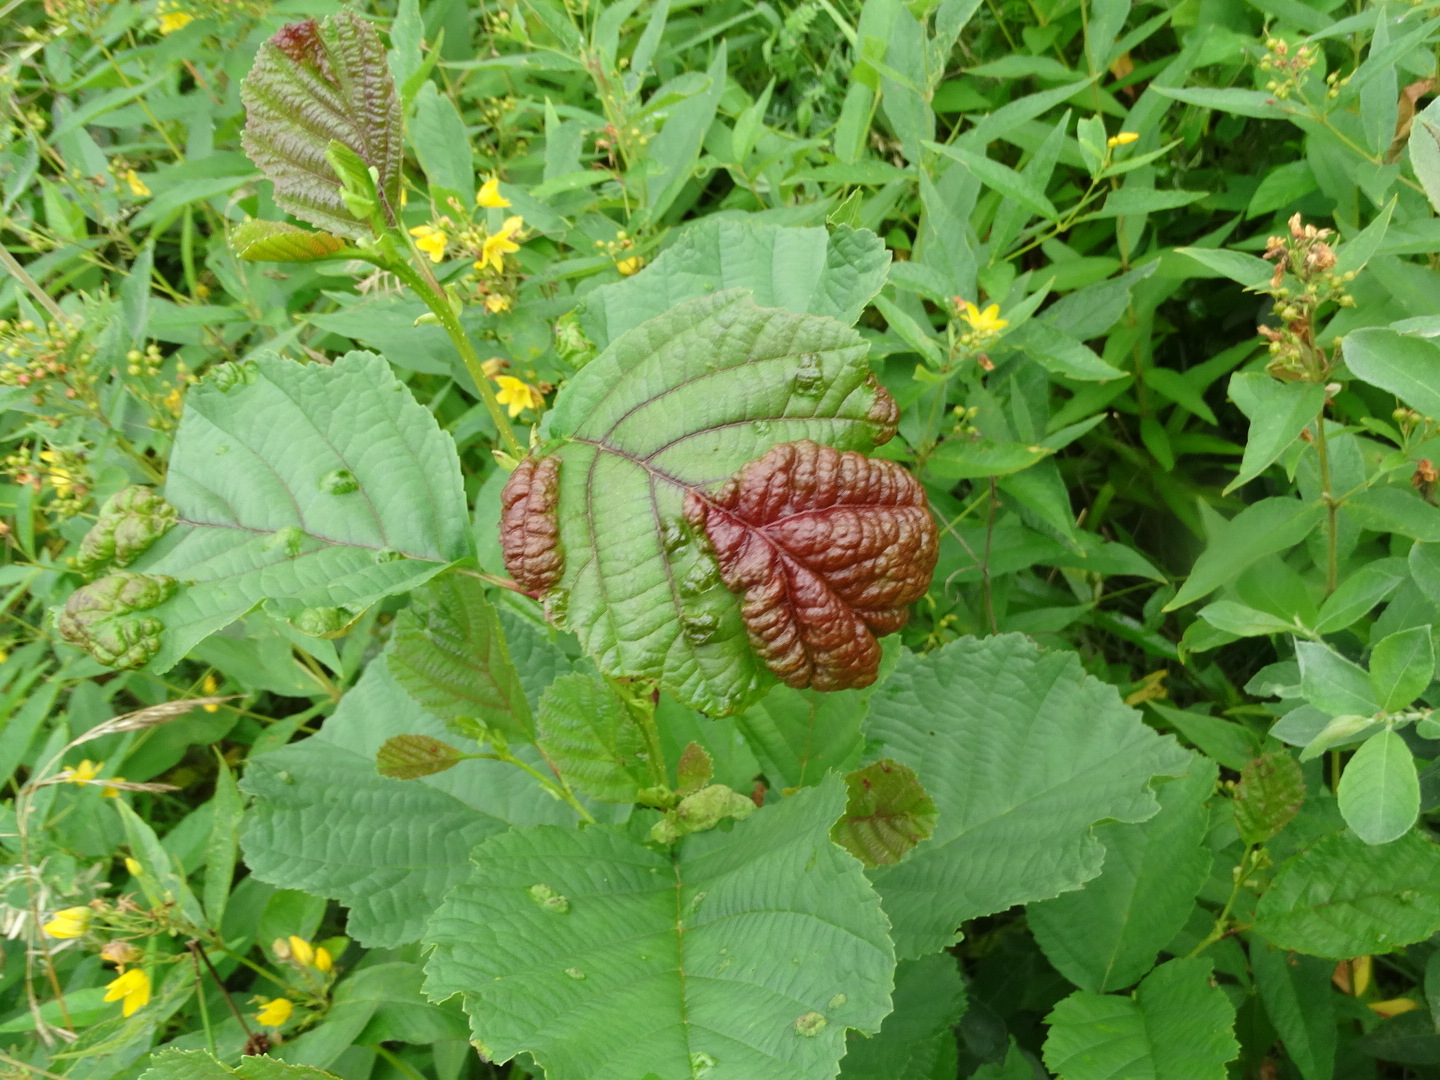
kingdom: Fungi
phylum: Ascomycota
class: Taphrinomycetes
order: Taphrinales
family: Taphrinaceae
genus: Taphrina
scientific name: Taphrina tosquinetii
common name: Alder wrinkle
